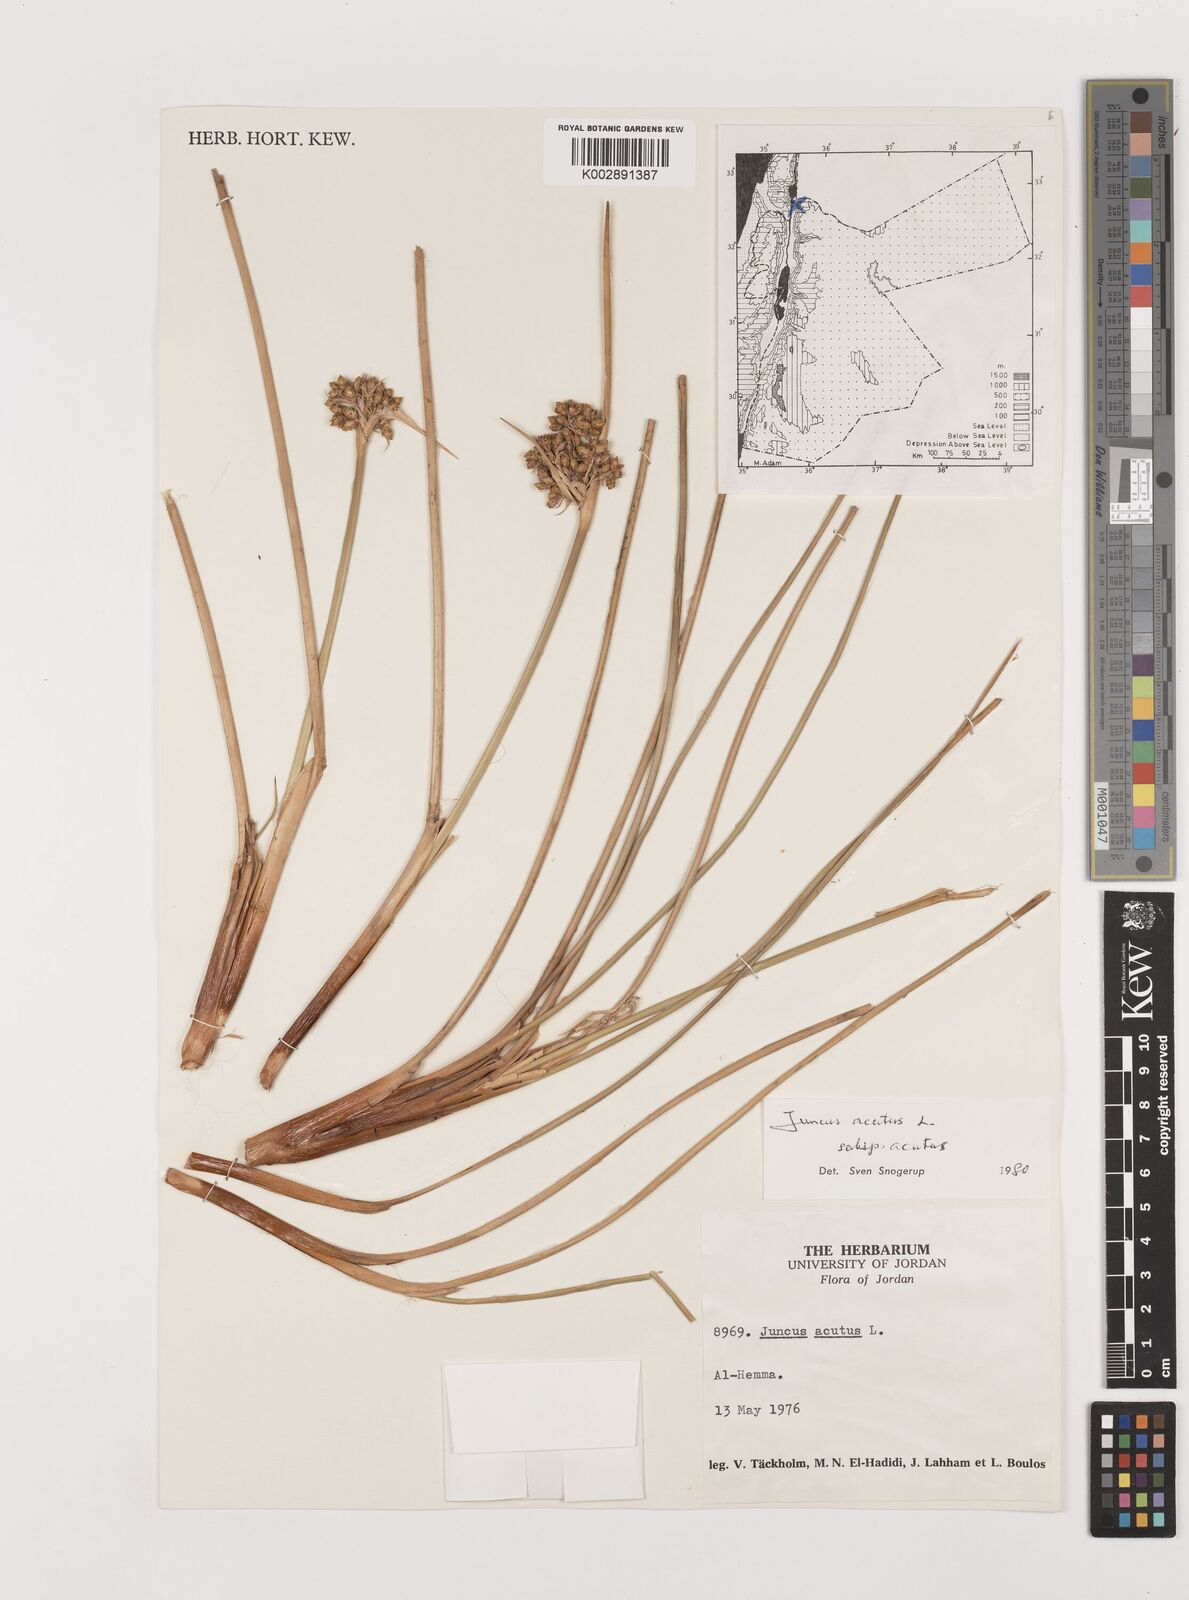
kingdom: Plantae
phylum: Tracheophyta
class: Liliopsida
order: Poales
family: Juncaceae
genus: Juncus
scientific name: Juncus acutus
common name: Sharp rush
